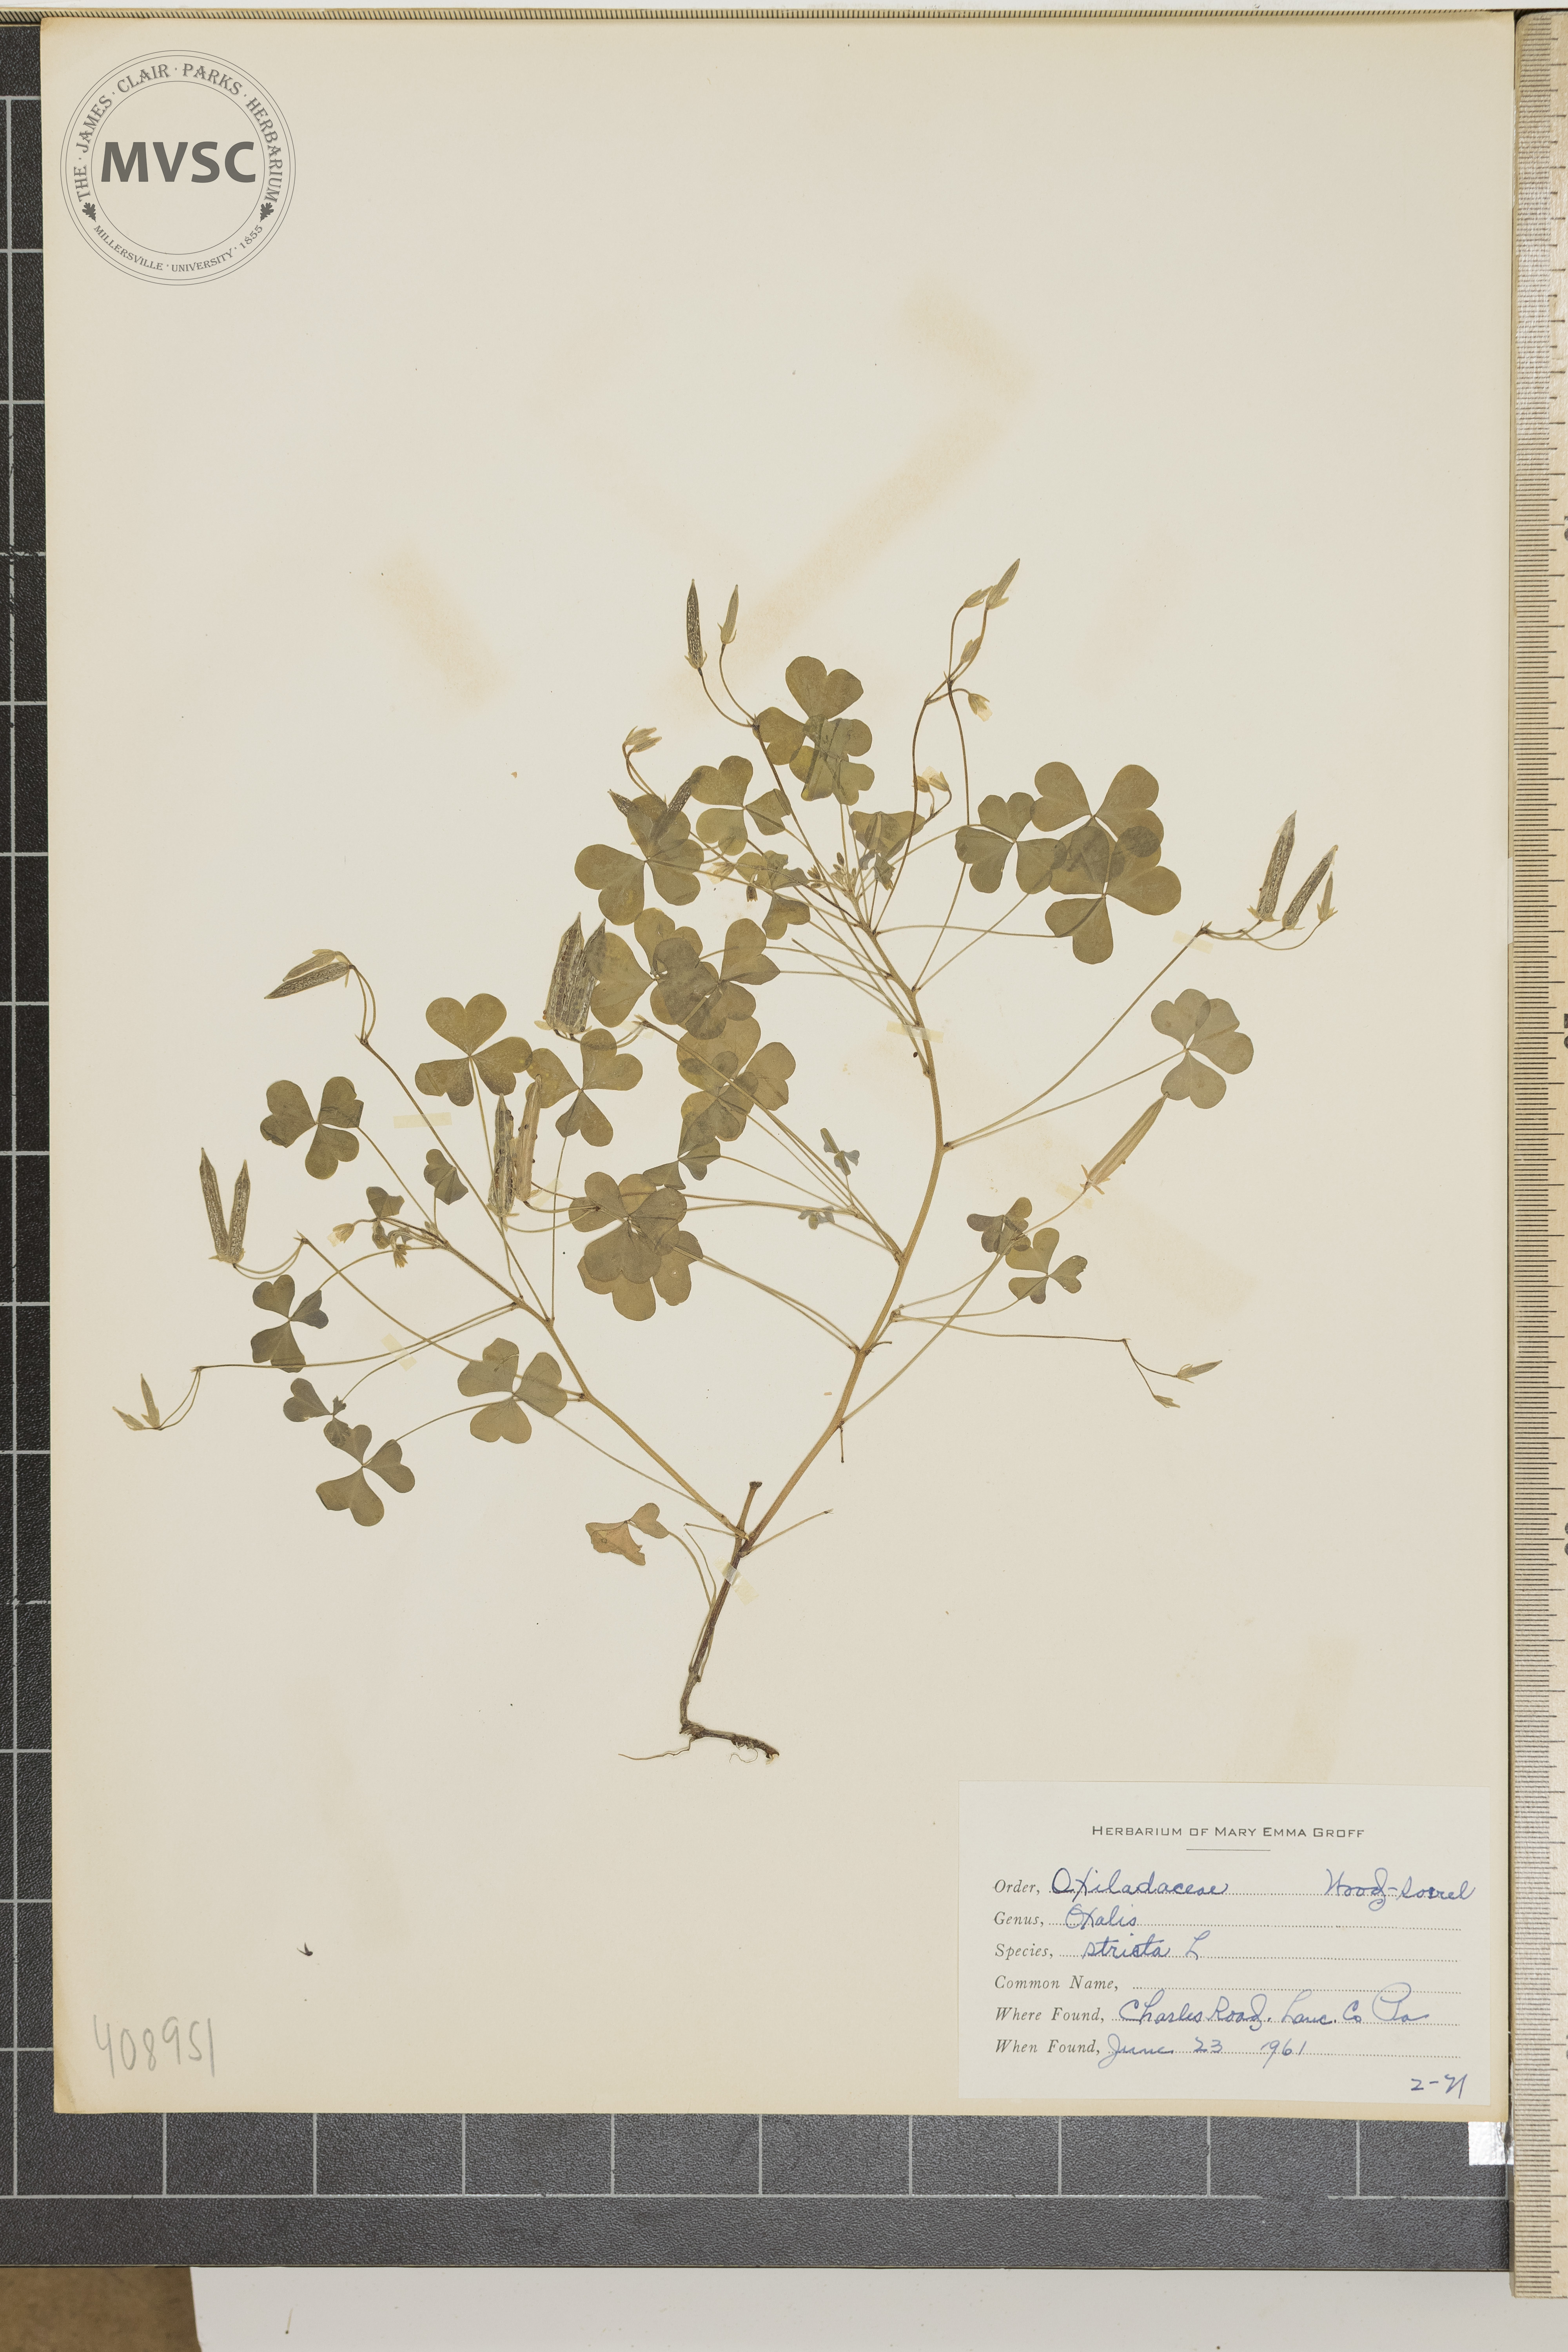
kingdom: Plantae
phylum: Tracheophyta
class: Magnoliopsida
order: Oxalidales
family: Oxalidaceae
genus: Oxalis
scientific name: Oxalis stricta
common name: Upright yellow-sorrel
